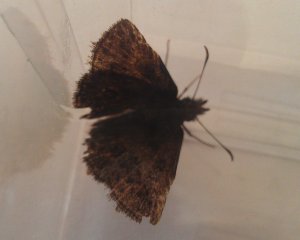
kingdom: Animalia
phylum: Arthropoda
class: Insecta
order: Lepidoptera
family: Hesperiidae
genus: Erynnis
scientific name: Erynnis icelus
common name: Dreamy Duskywing
